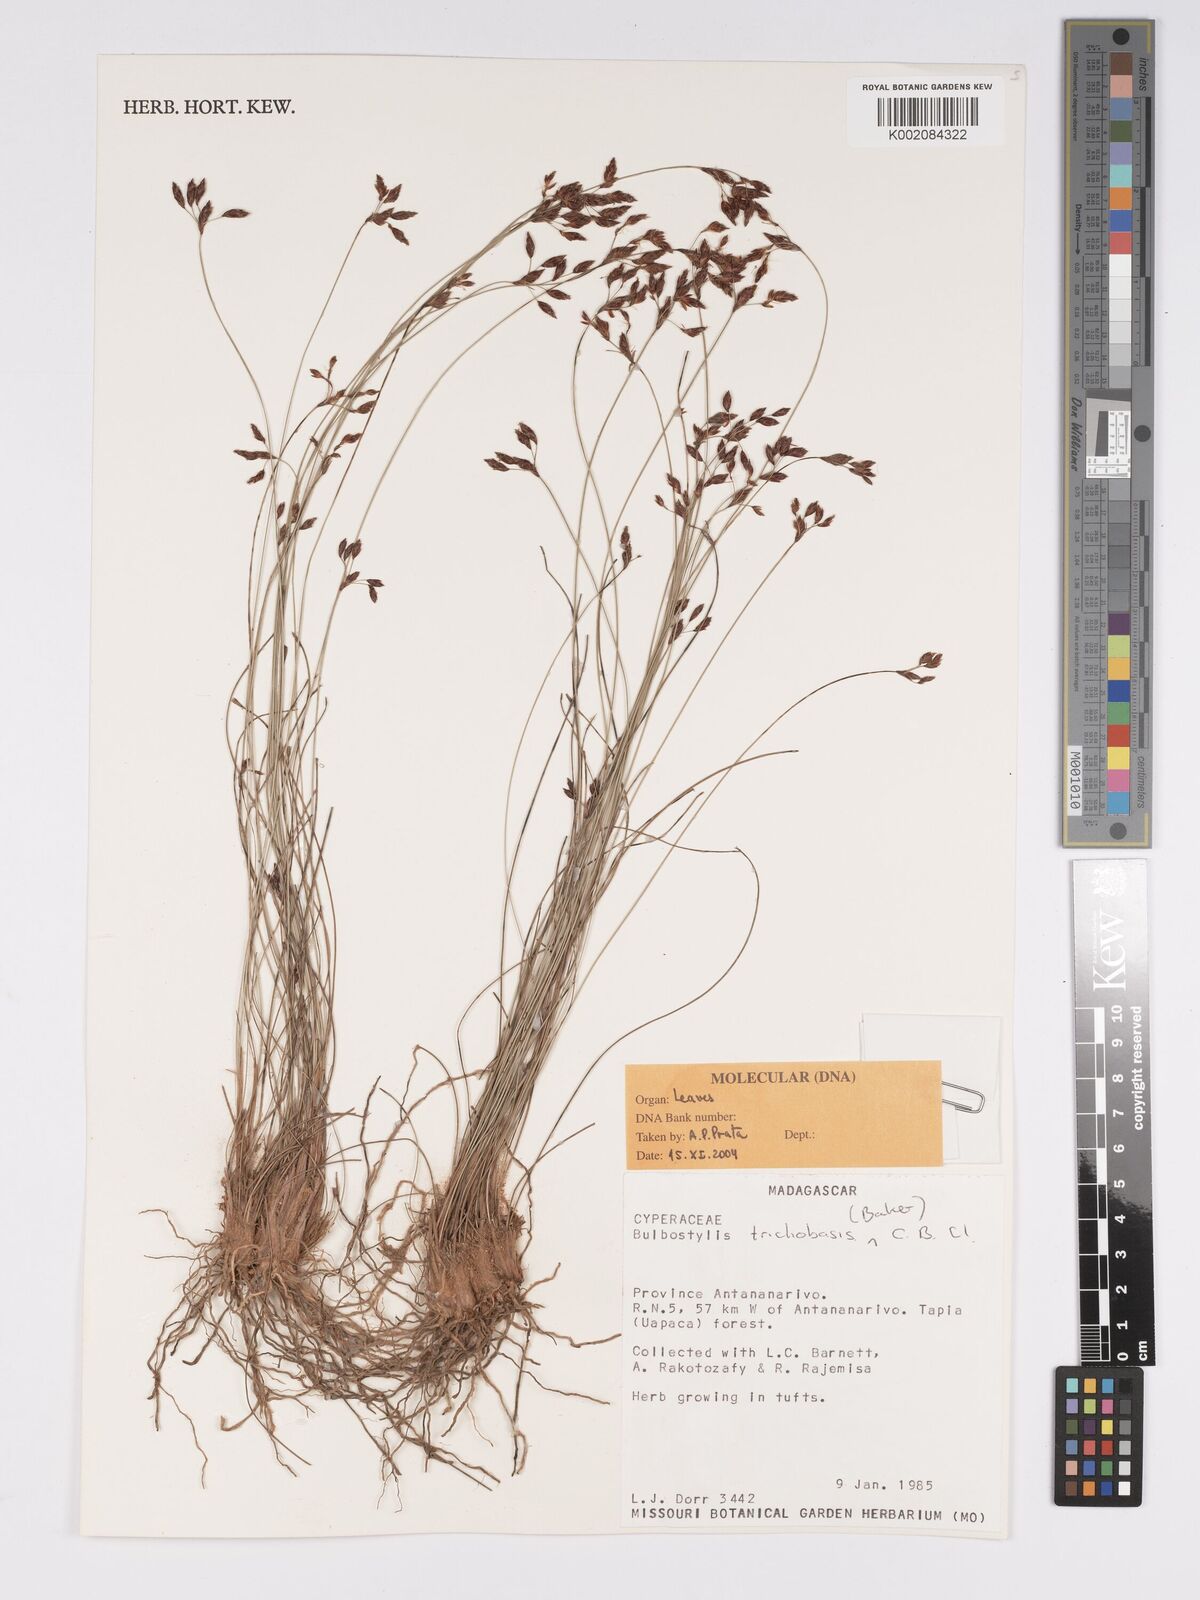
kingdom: Plantae
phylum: Tracheophyta
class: Liliopsida
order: Poales
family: Cyperaceae
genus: Bulbostylis
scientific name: Bulbostylis trichobasis
